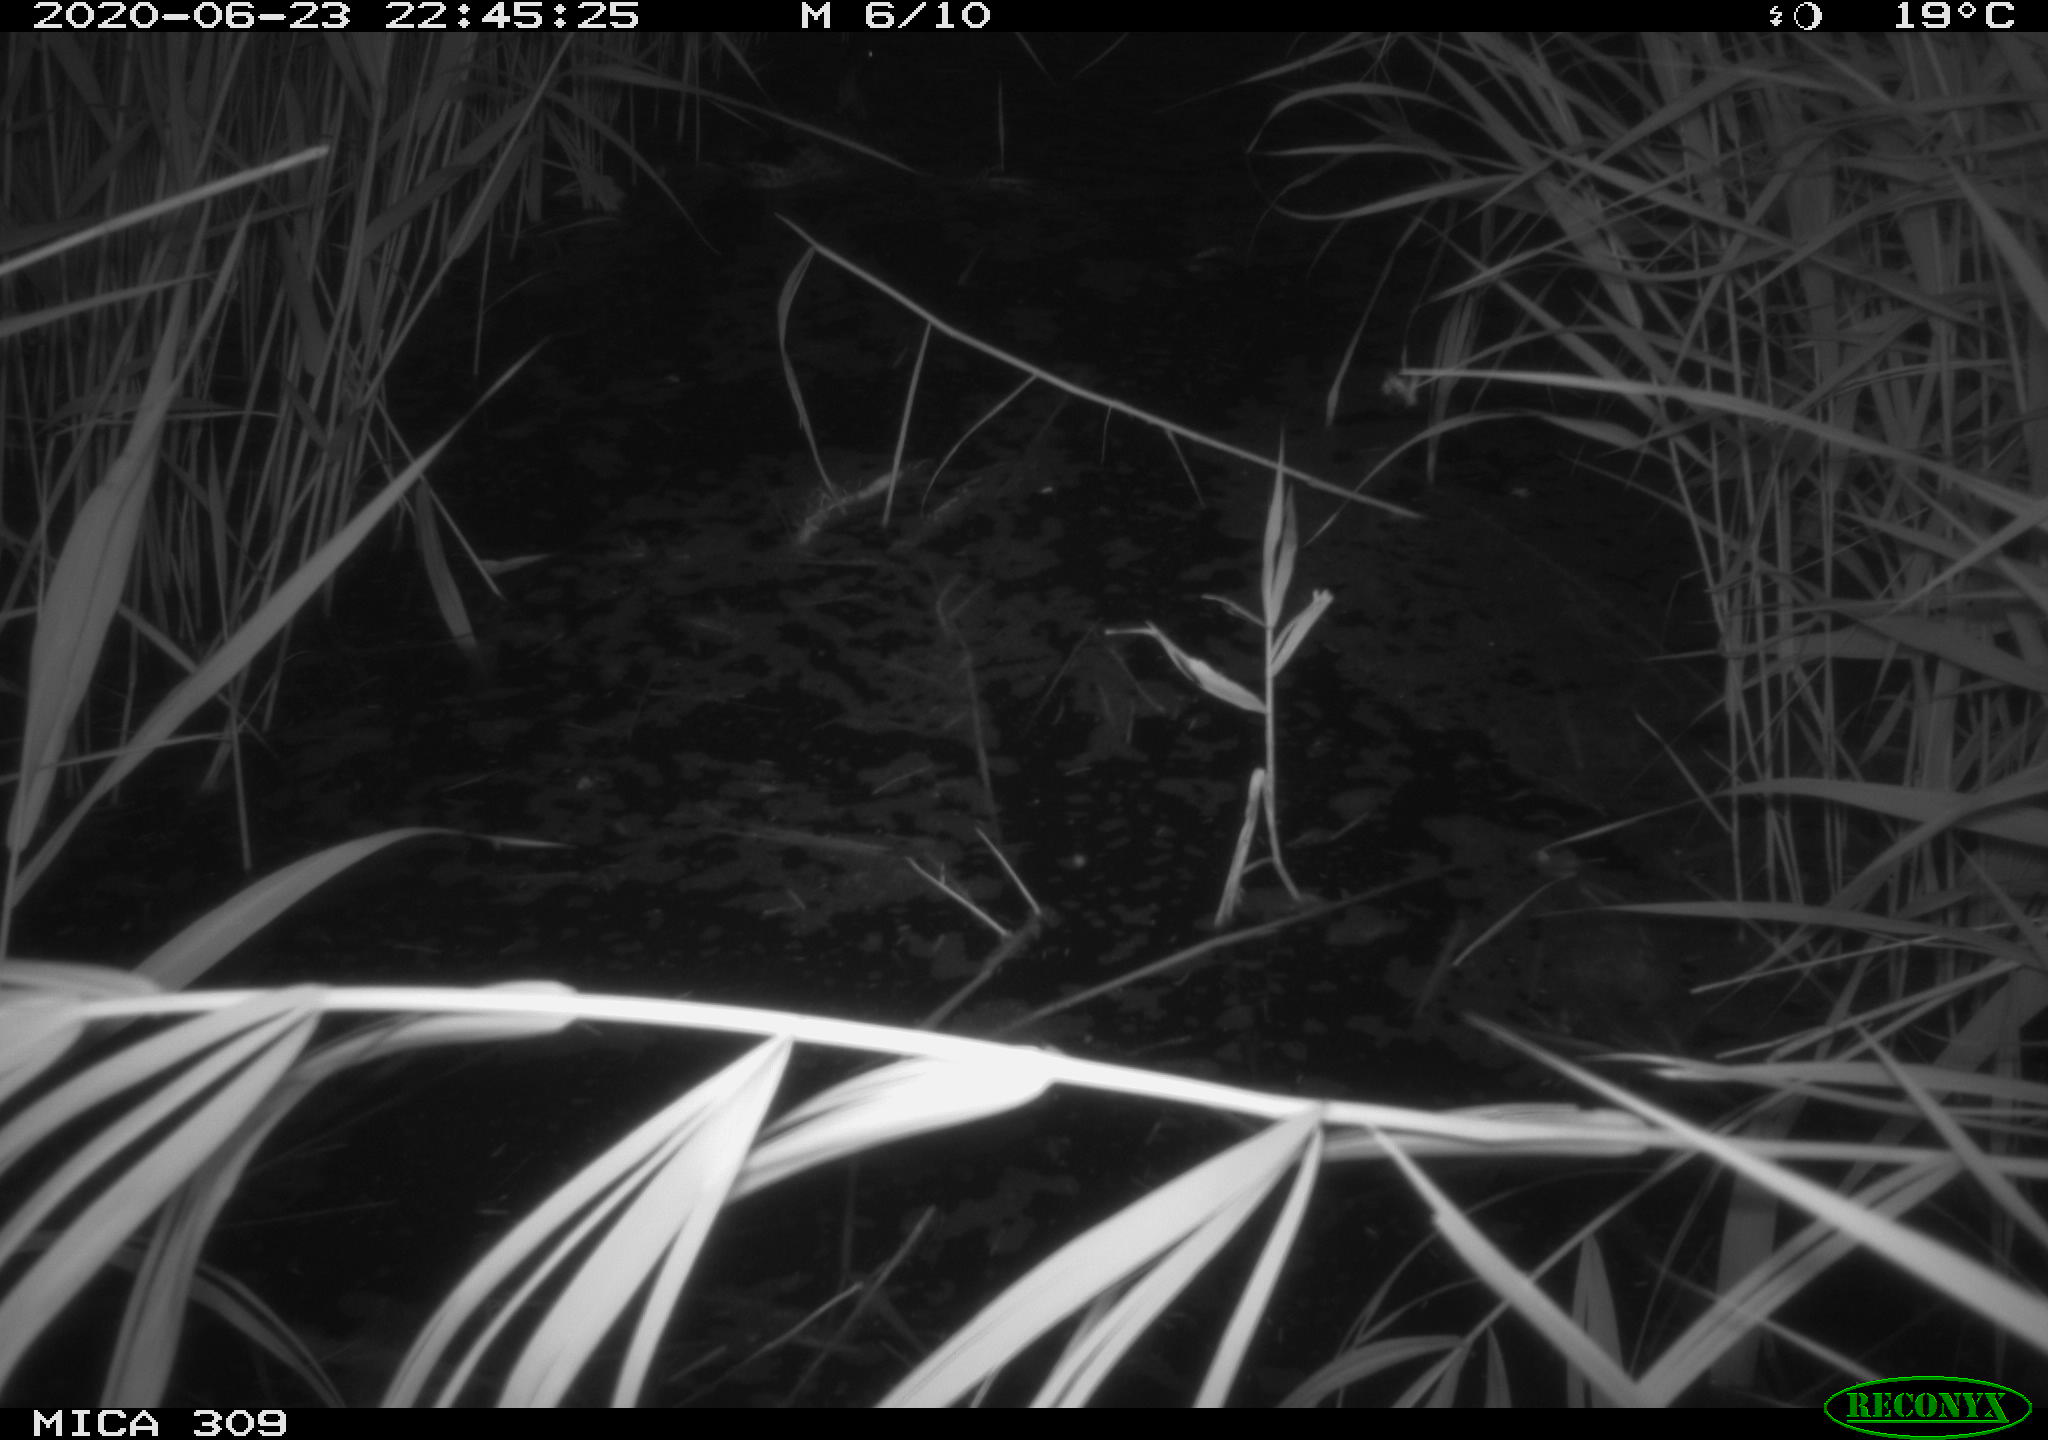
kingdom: Animalia
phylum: Chordata
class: Aves
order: Anseriformes
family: Anatidae
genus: Anas
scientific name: Anas platyrhynchos
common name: Mallard
